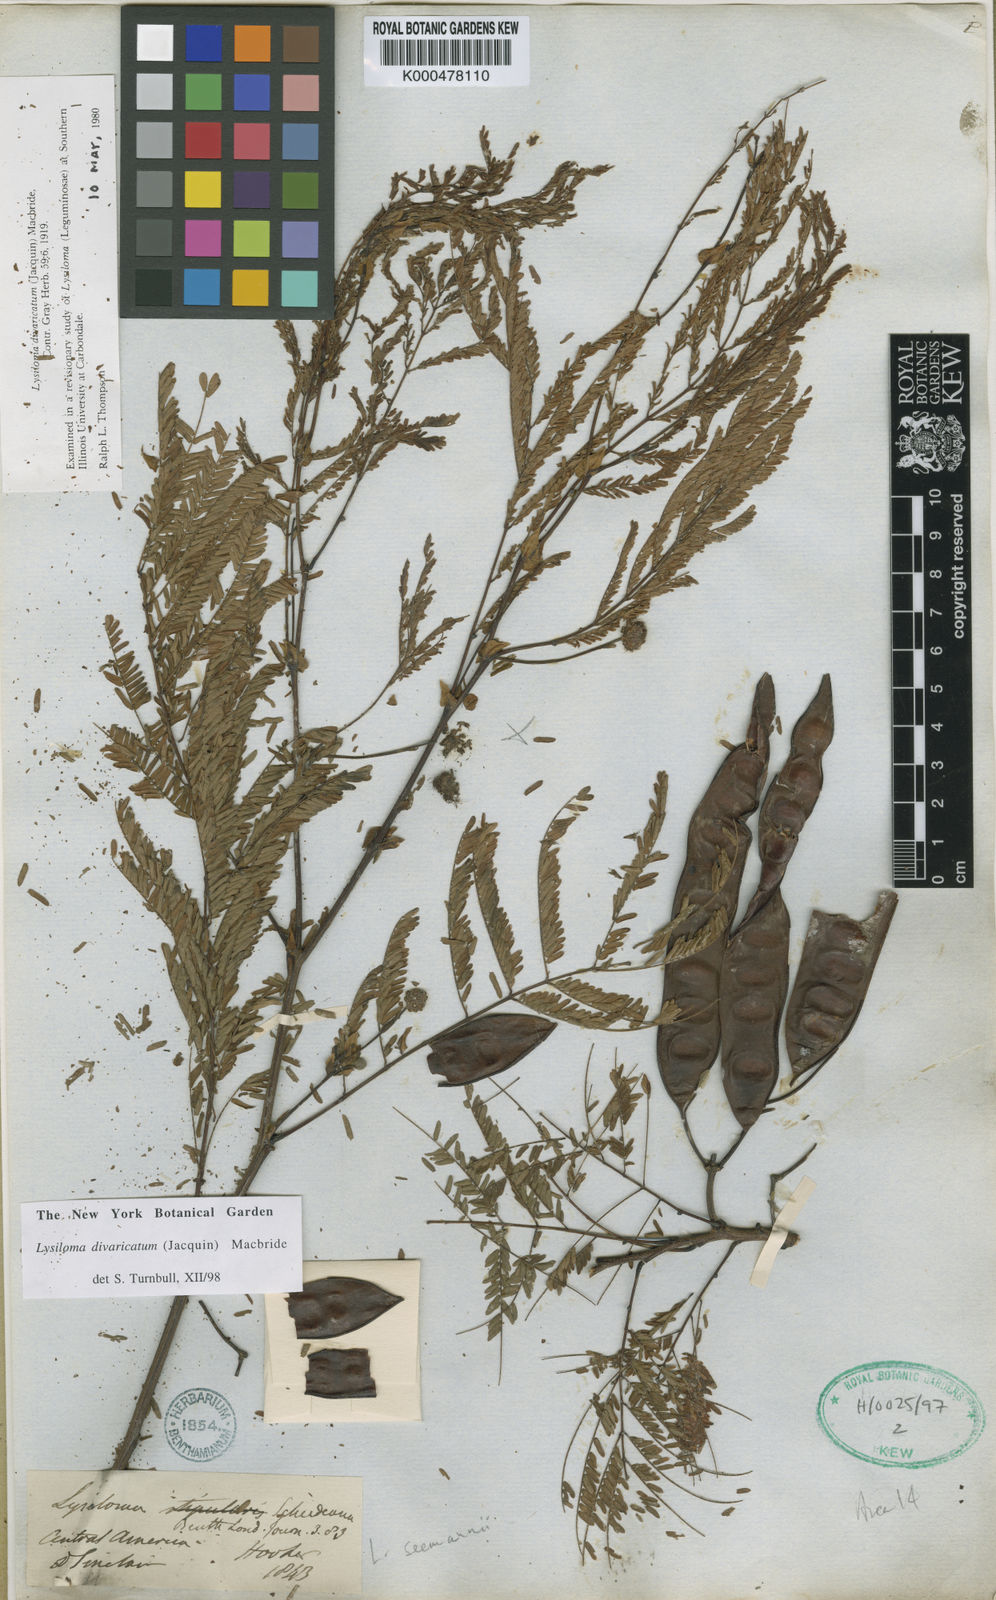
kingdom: Plantae
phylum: Tracheophyta
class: Magnoliopsida
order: Fabales
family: Fabaceae
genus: Lysiloma
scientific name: Lysiloma divaricatum
